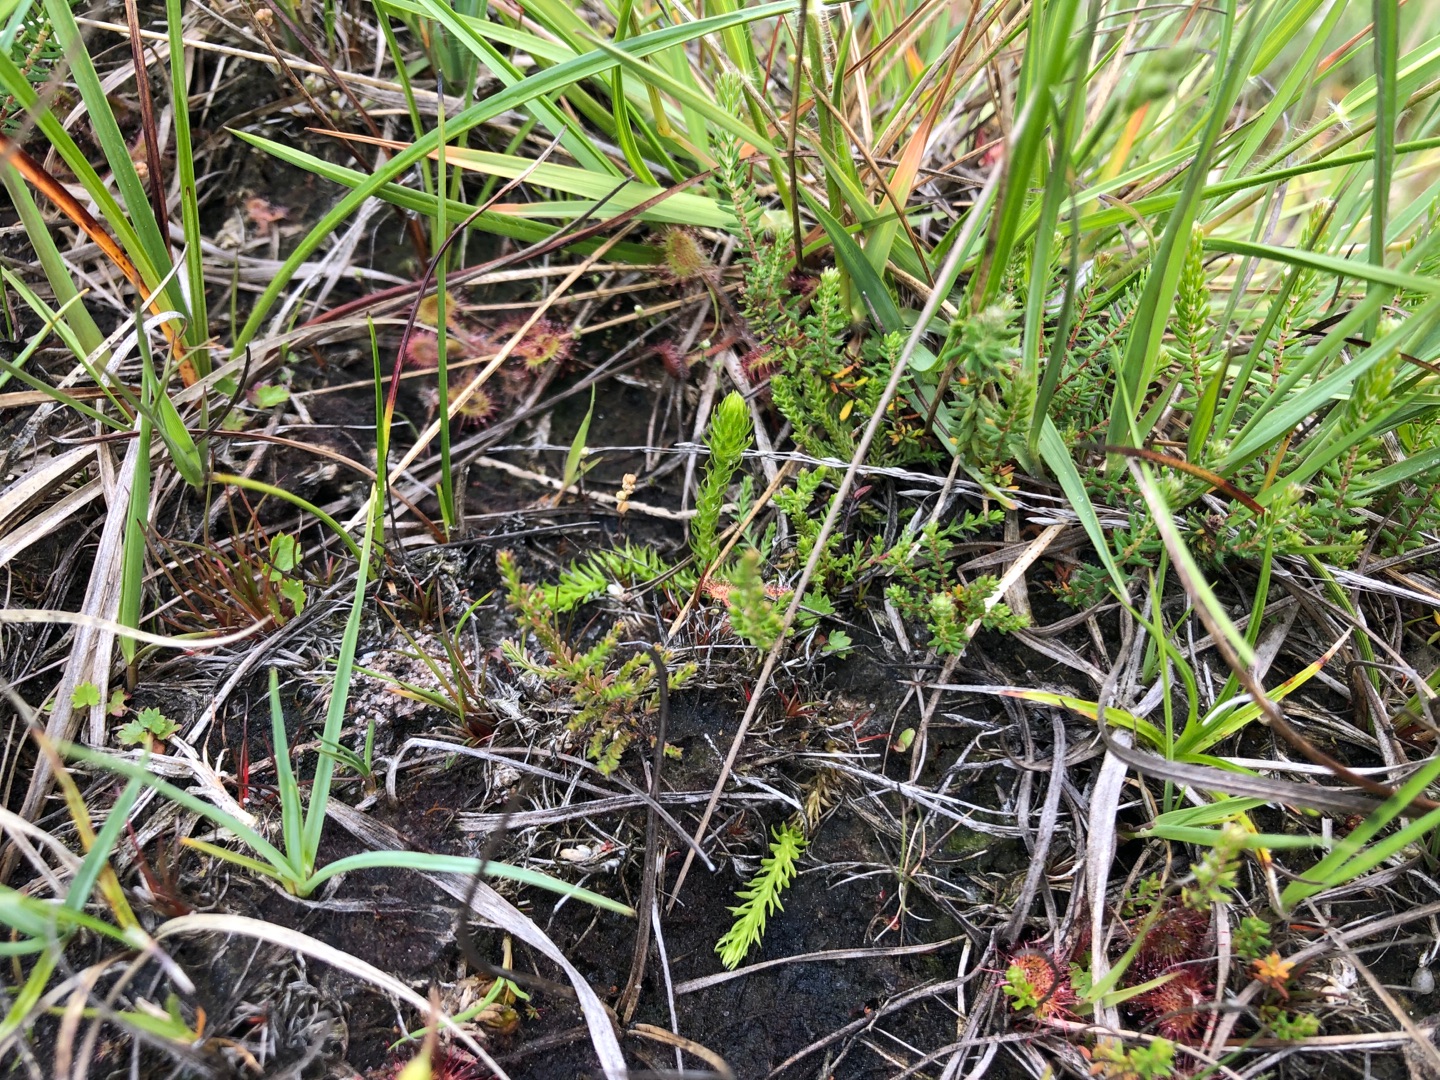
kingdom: Plantae
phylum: Tracheophyta
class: Lycopodiopsida
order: Lycopodiales
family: Lycopodiaceae
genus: Lycopodiella
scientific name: Lycopodiella inundata
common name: Liden ulvefod
